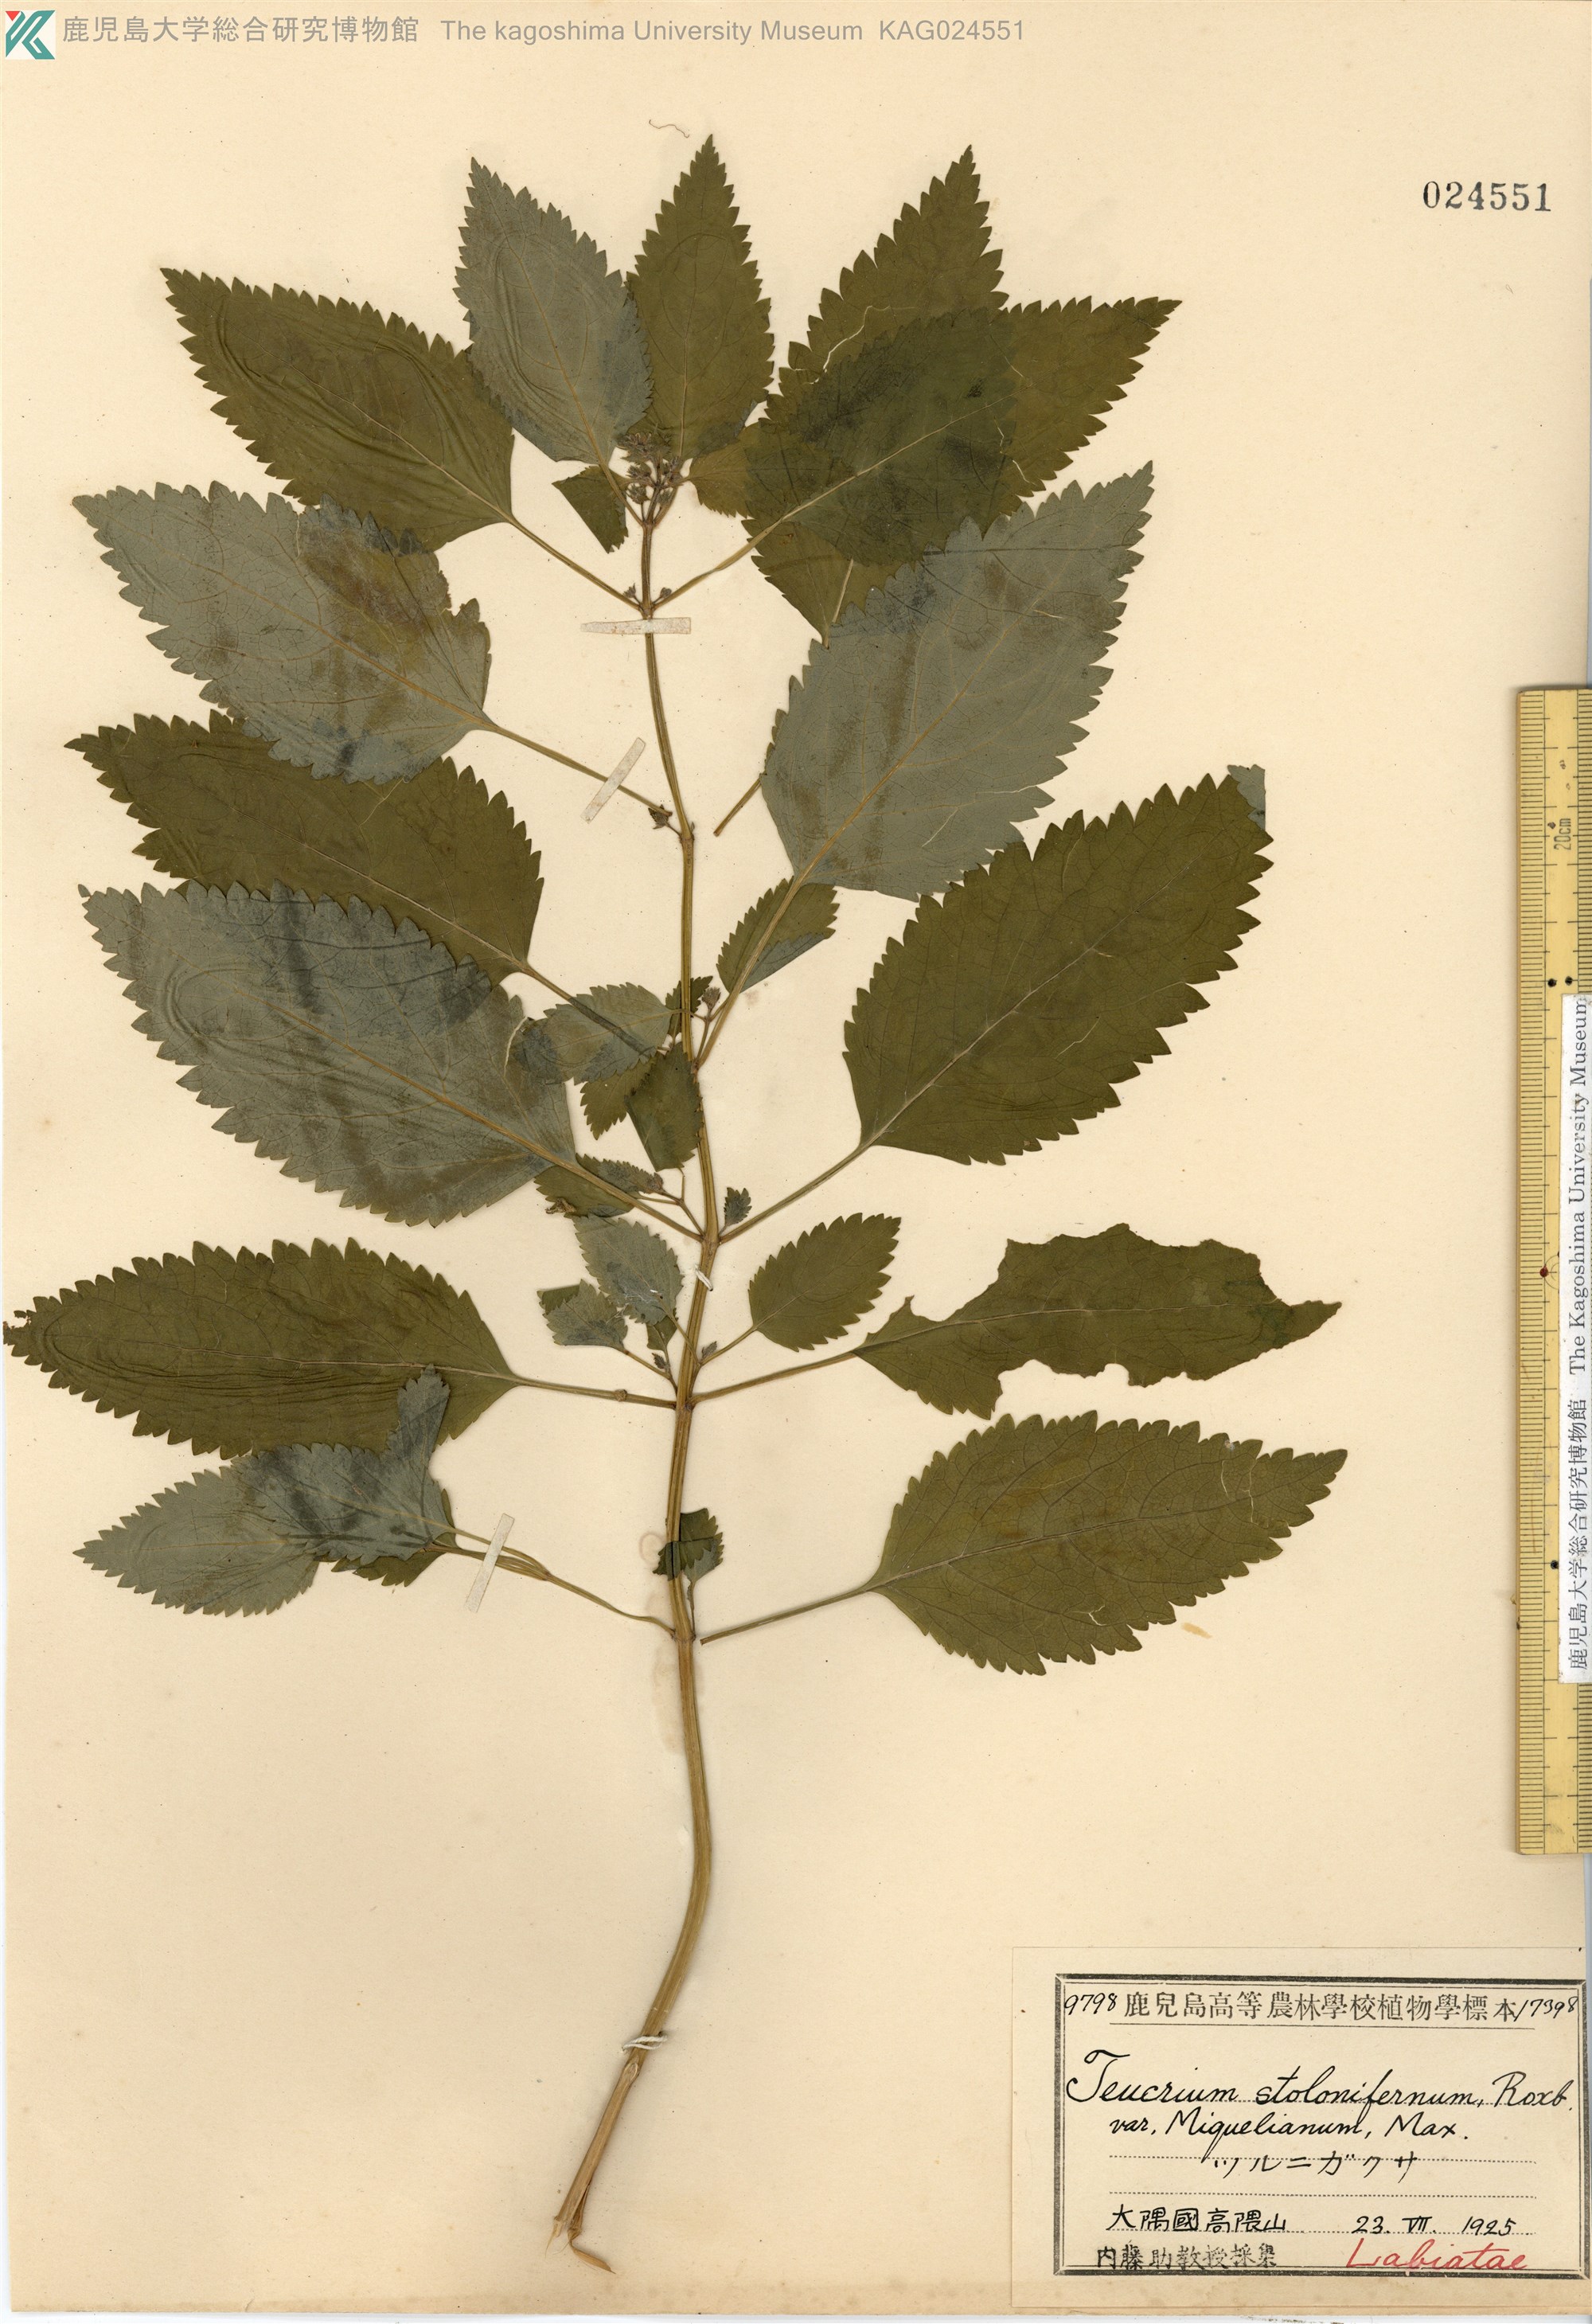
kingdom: Plantae
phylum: Tracheophyta
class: Magnoliopsida
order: Lamiales
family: Lamiaceae
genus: Teucrium
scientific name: Teucrium viscidum
